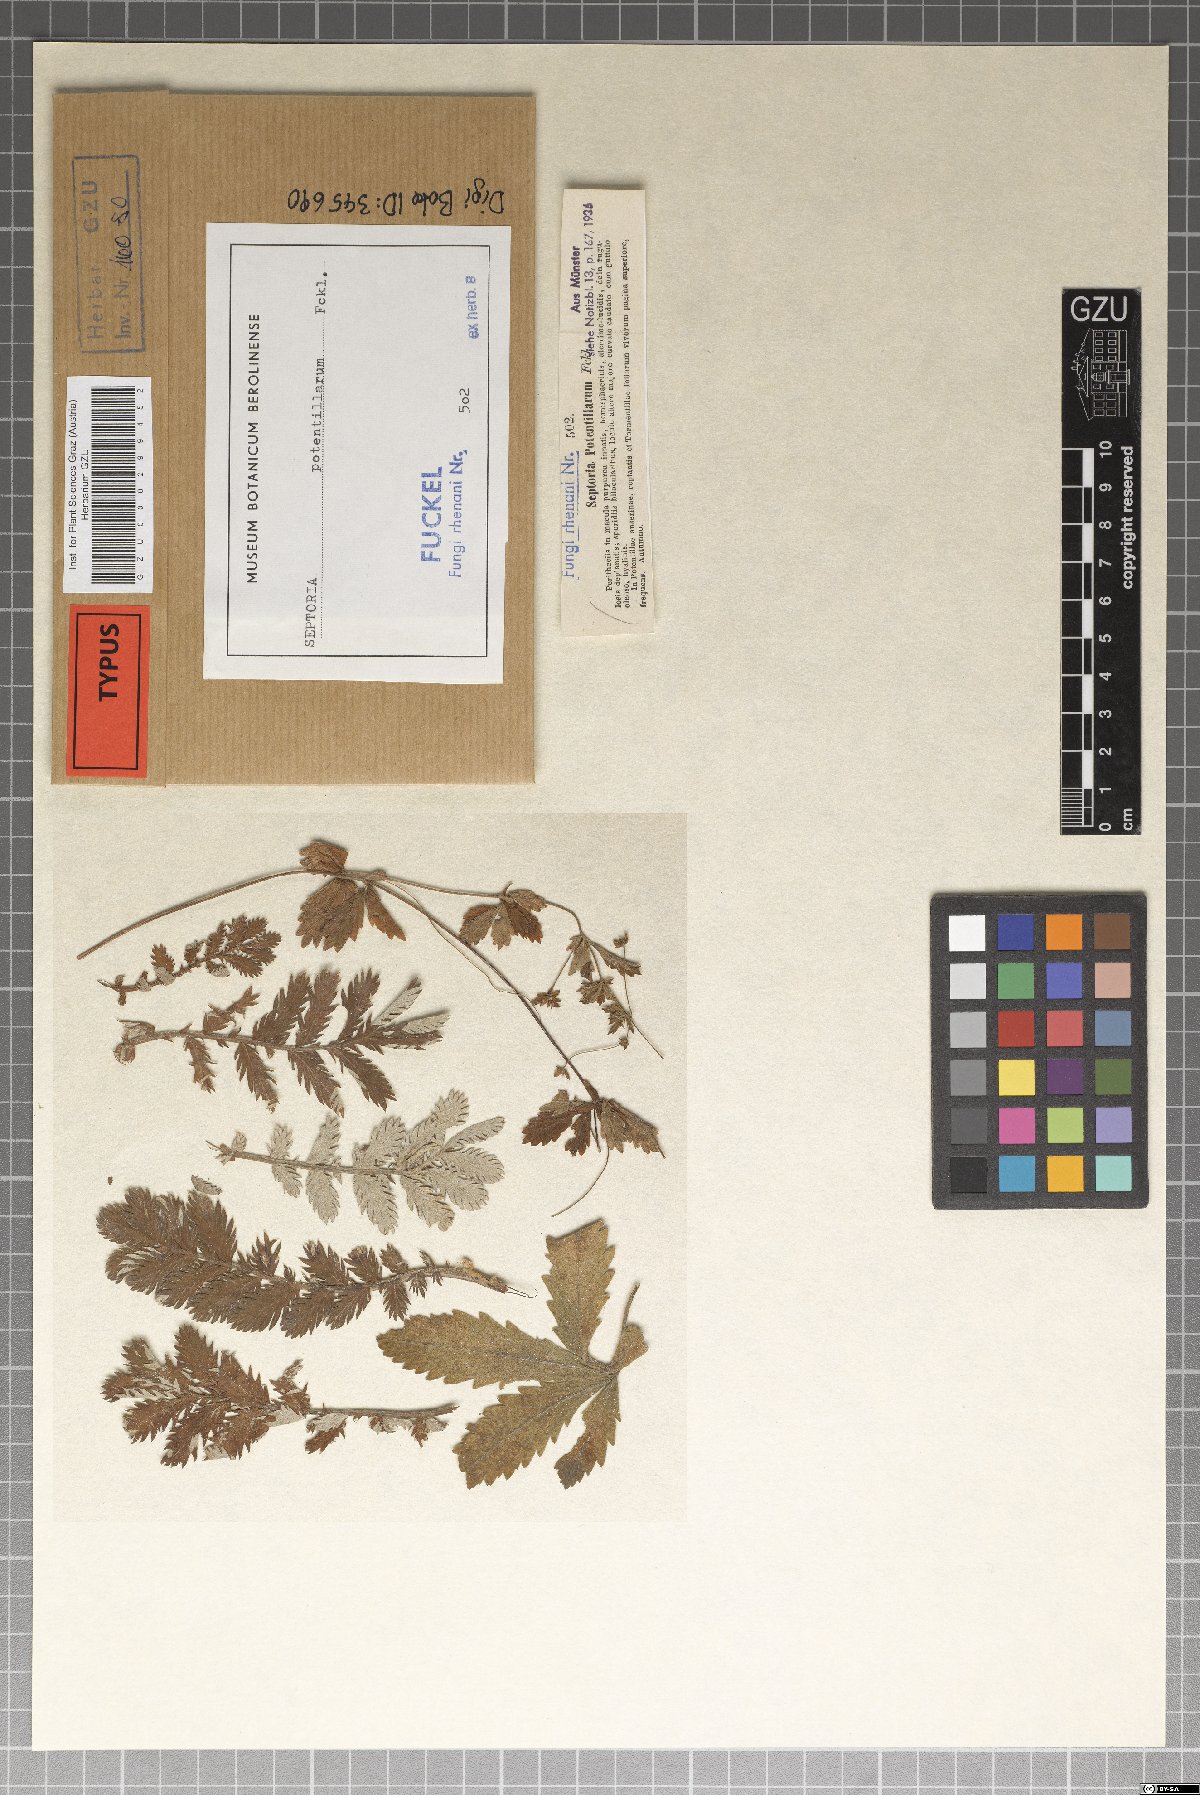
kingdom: Fungi
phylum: Ascomycota
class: Dothideomycetes
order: Mycosphaerellales
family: Mycosphaerellaceae
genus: Septoria
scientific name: Septoria potentillae
